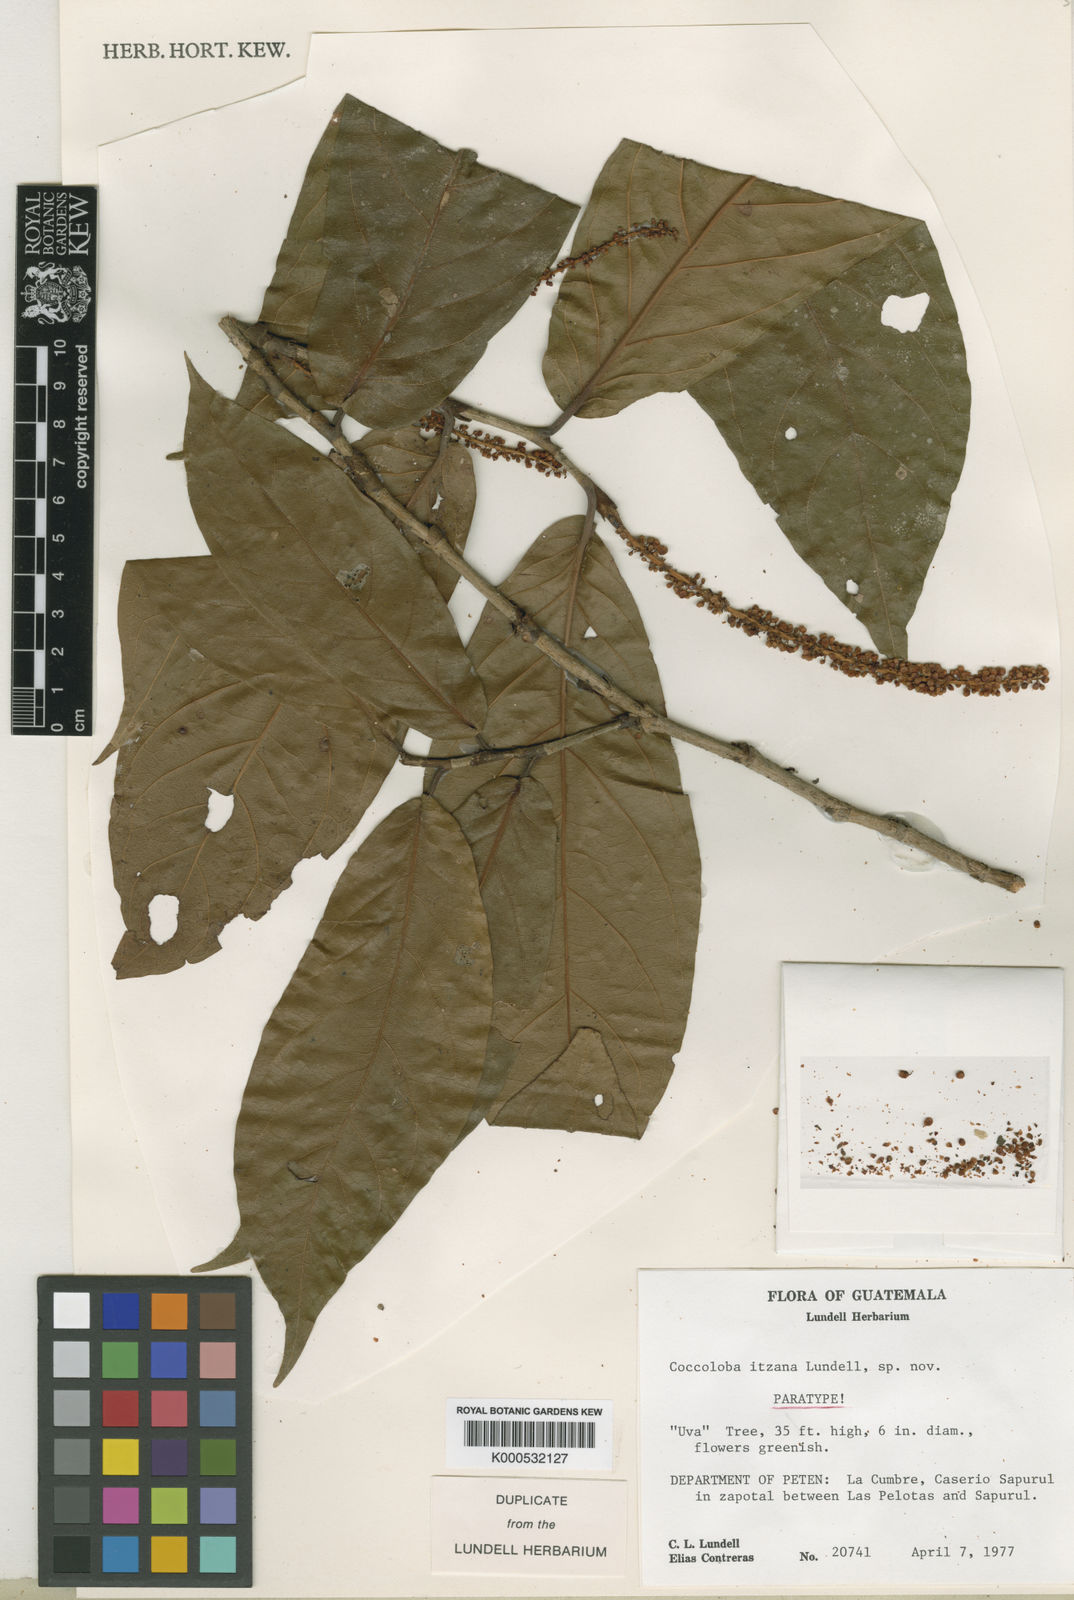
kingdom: Plantae
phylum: Tracheophyta
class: Magnoliopsida
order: Caryophyllales
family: Polygonaceae
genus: Coccoloba
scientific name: Coccoloba lindaviana
